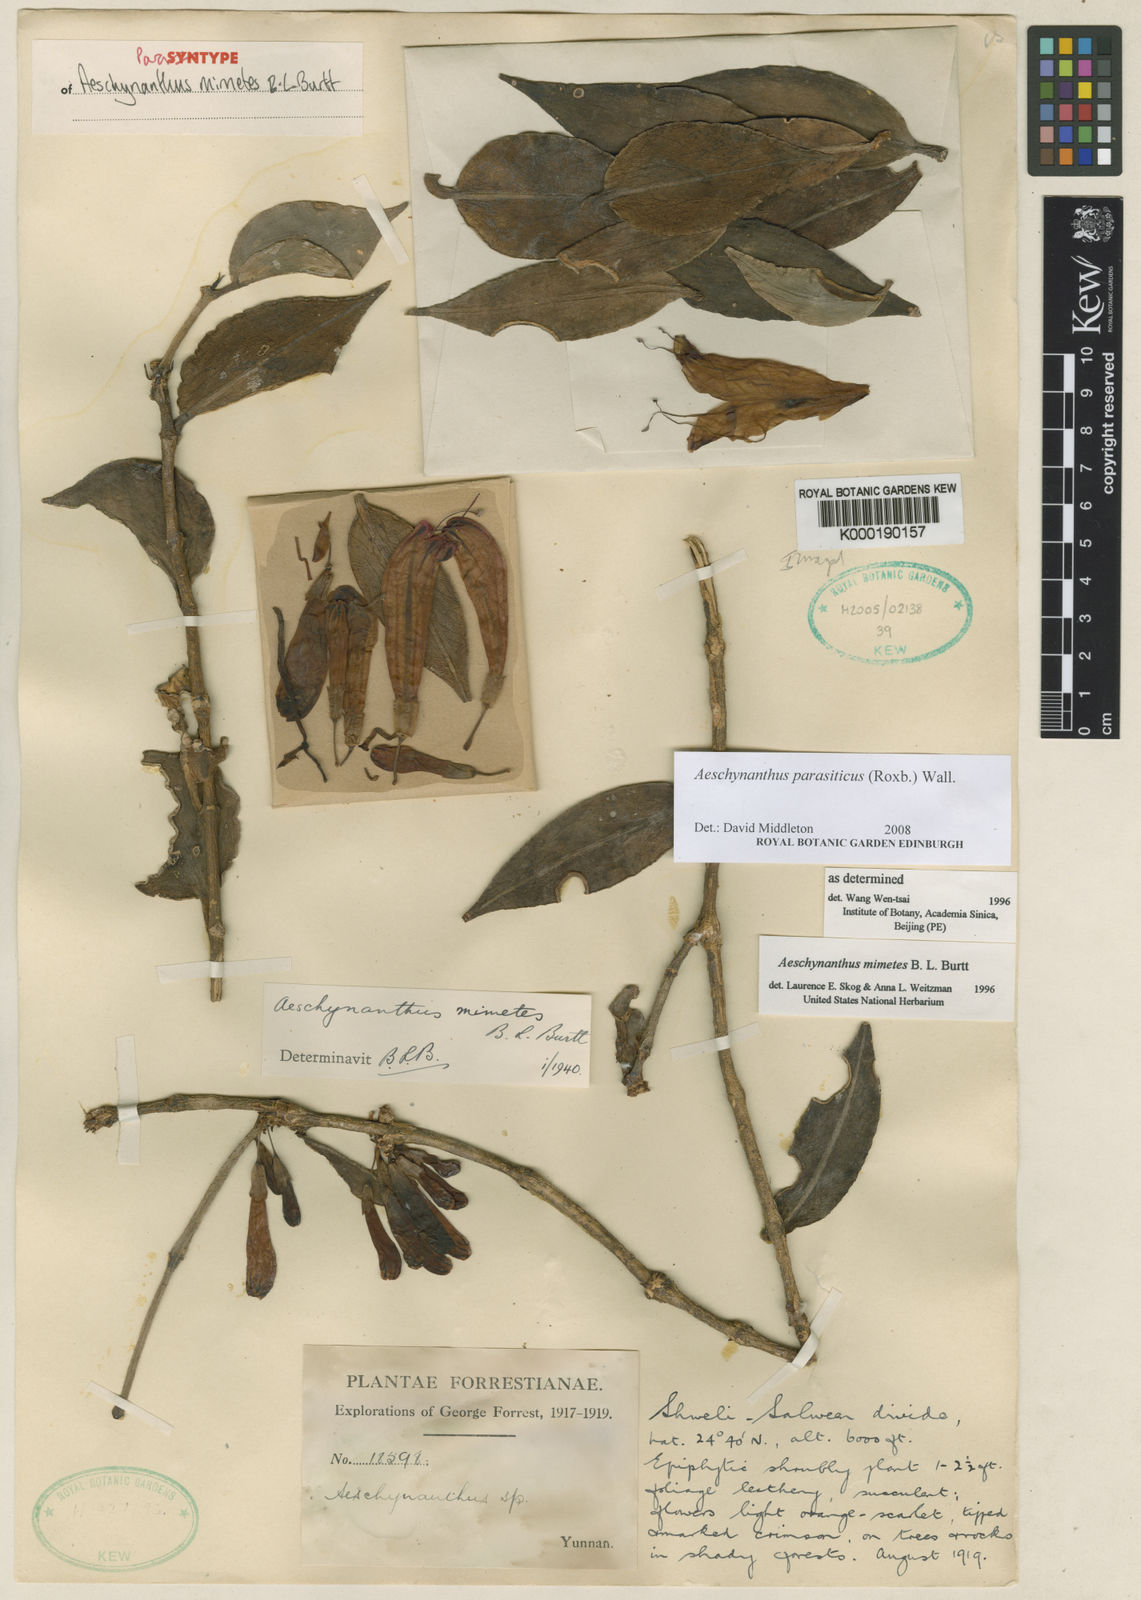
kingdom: Plantae
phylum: Tracheophyta
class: Magnoliopsida
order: Lamiales
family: Gesneriaceae
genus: Aeschynanthus
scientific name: Aeschynanthus parasiticus
